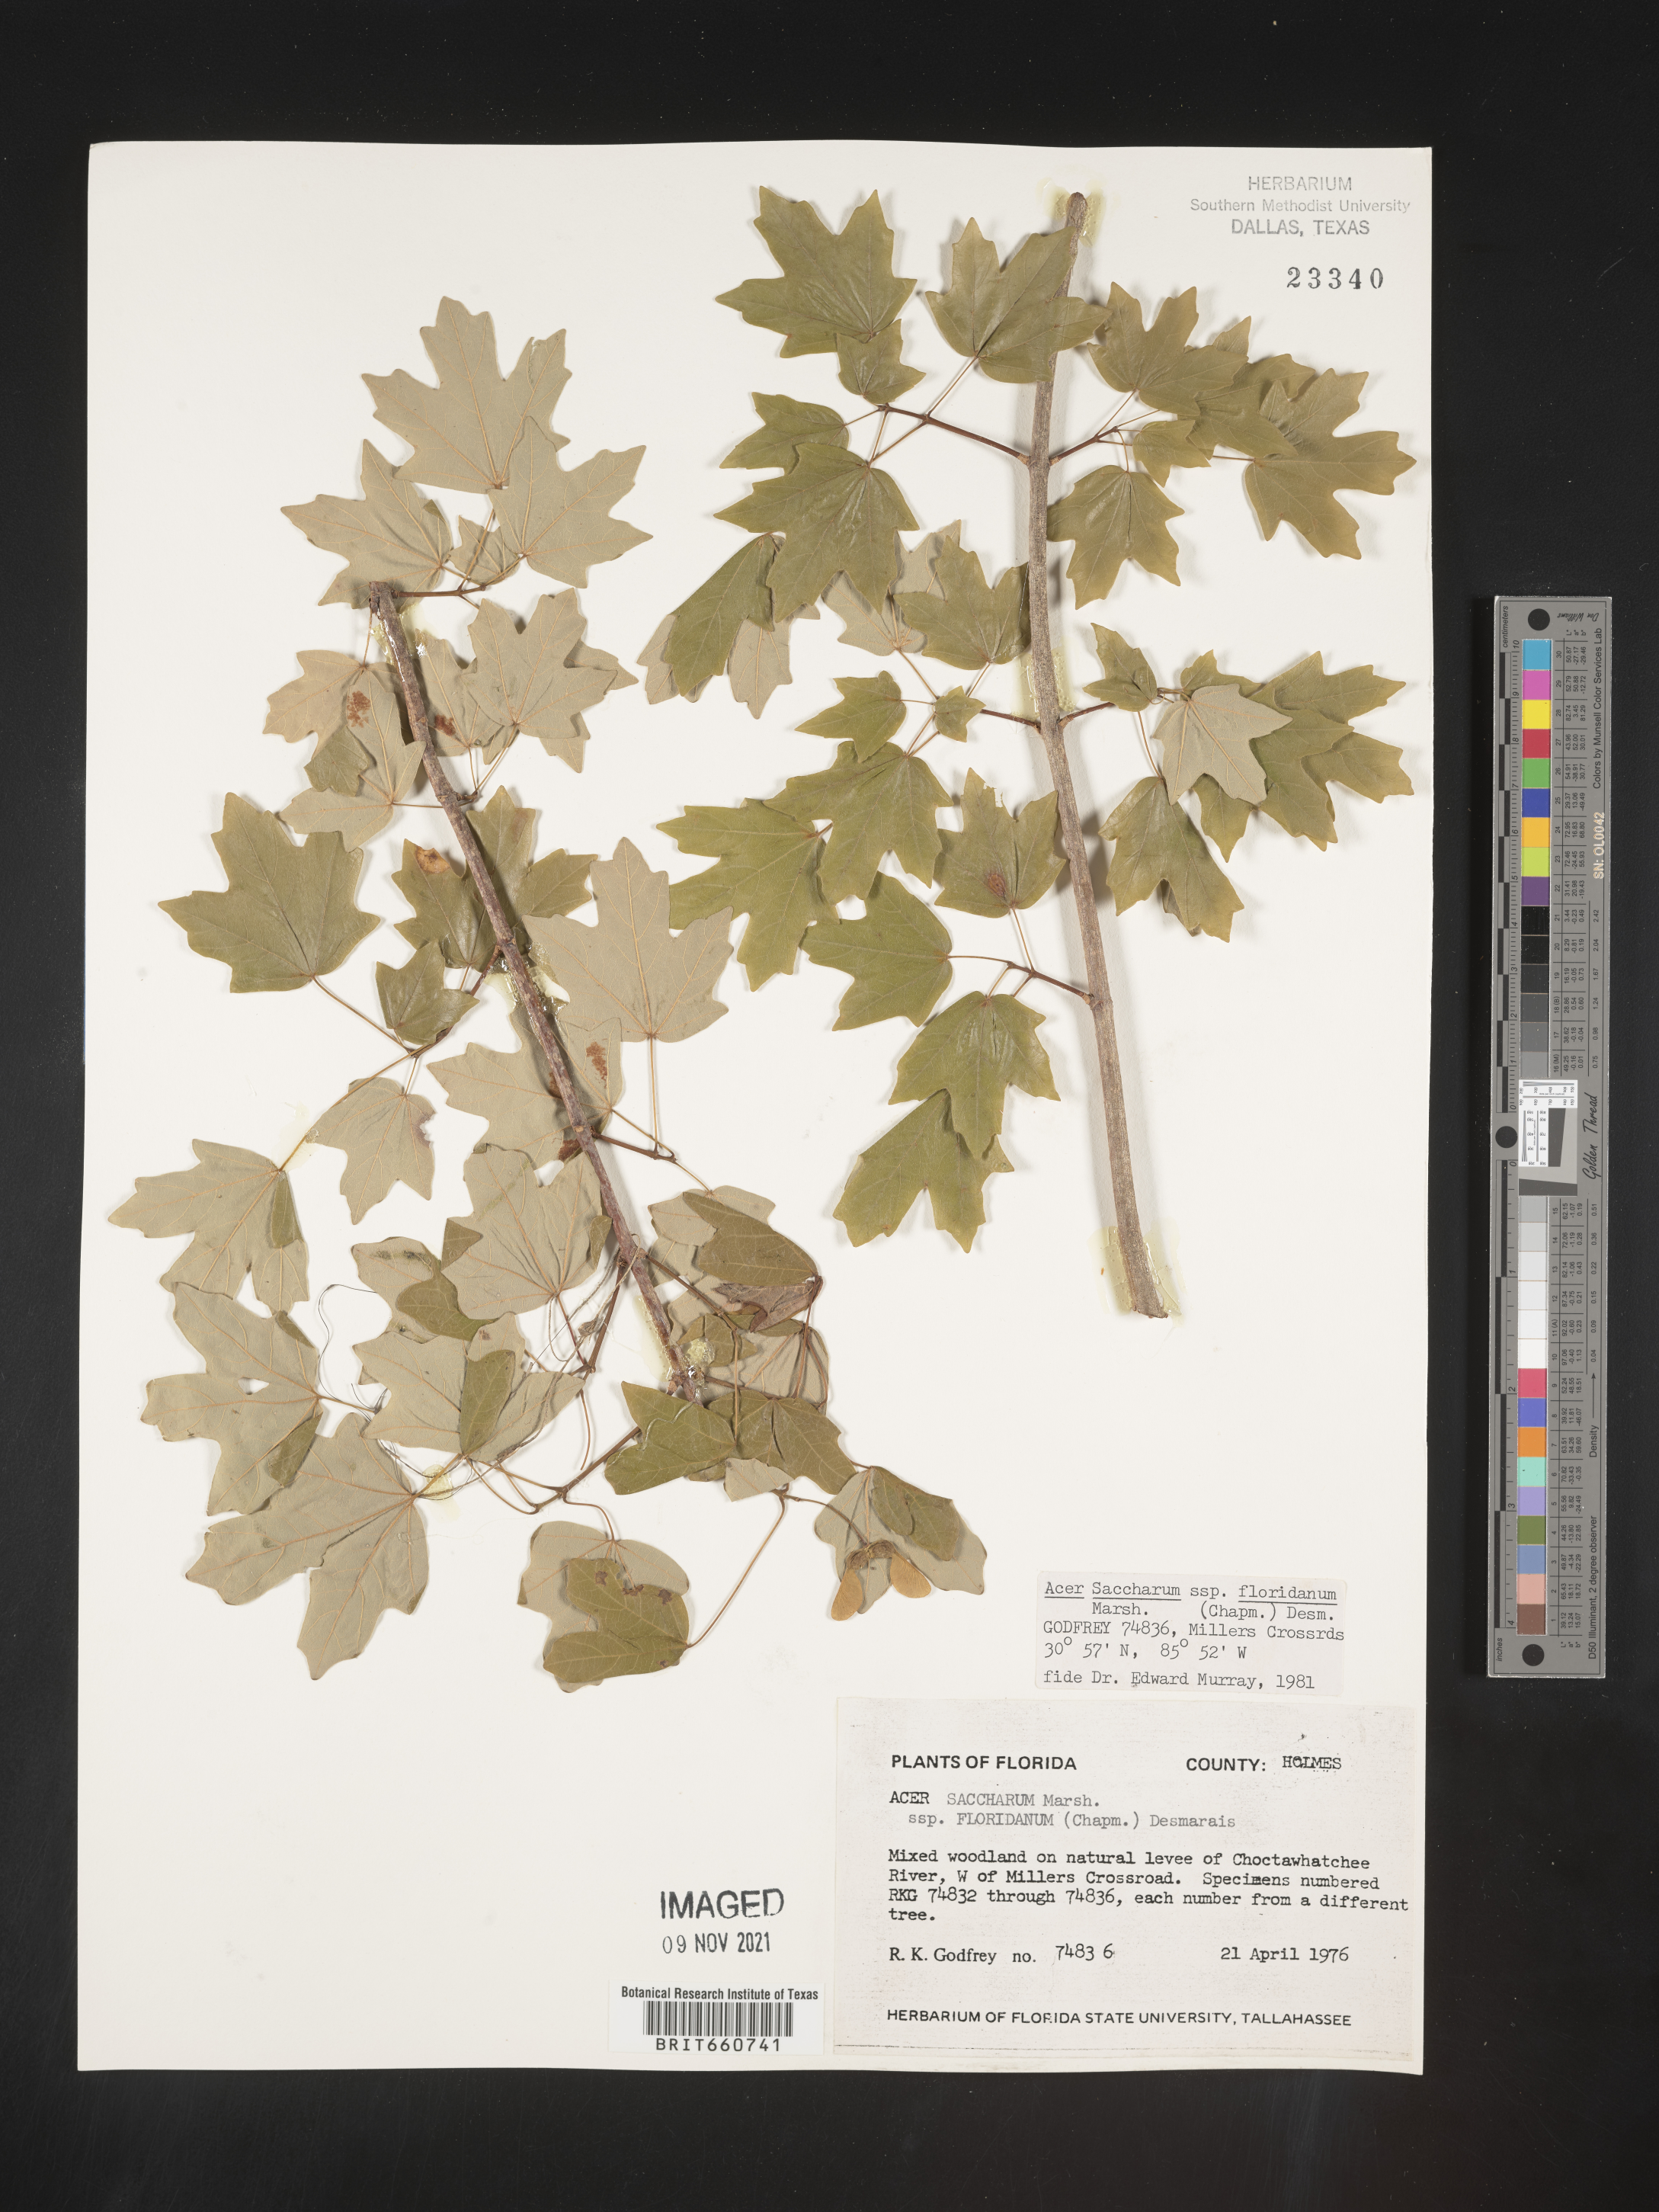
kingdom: Plantae
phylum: Tracheophyta
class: Magnoliopsida
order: Sapindales
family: Sapindaceae
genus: Acer
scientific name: Acer barbatum
